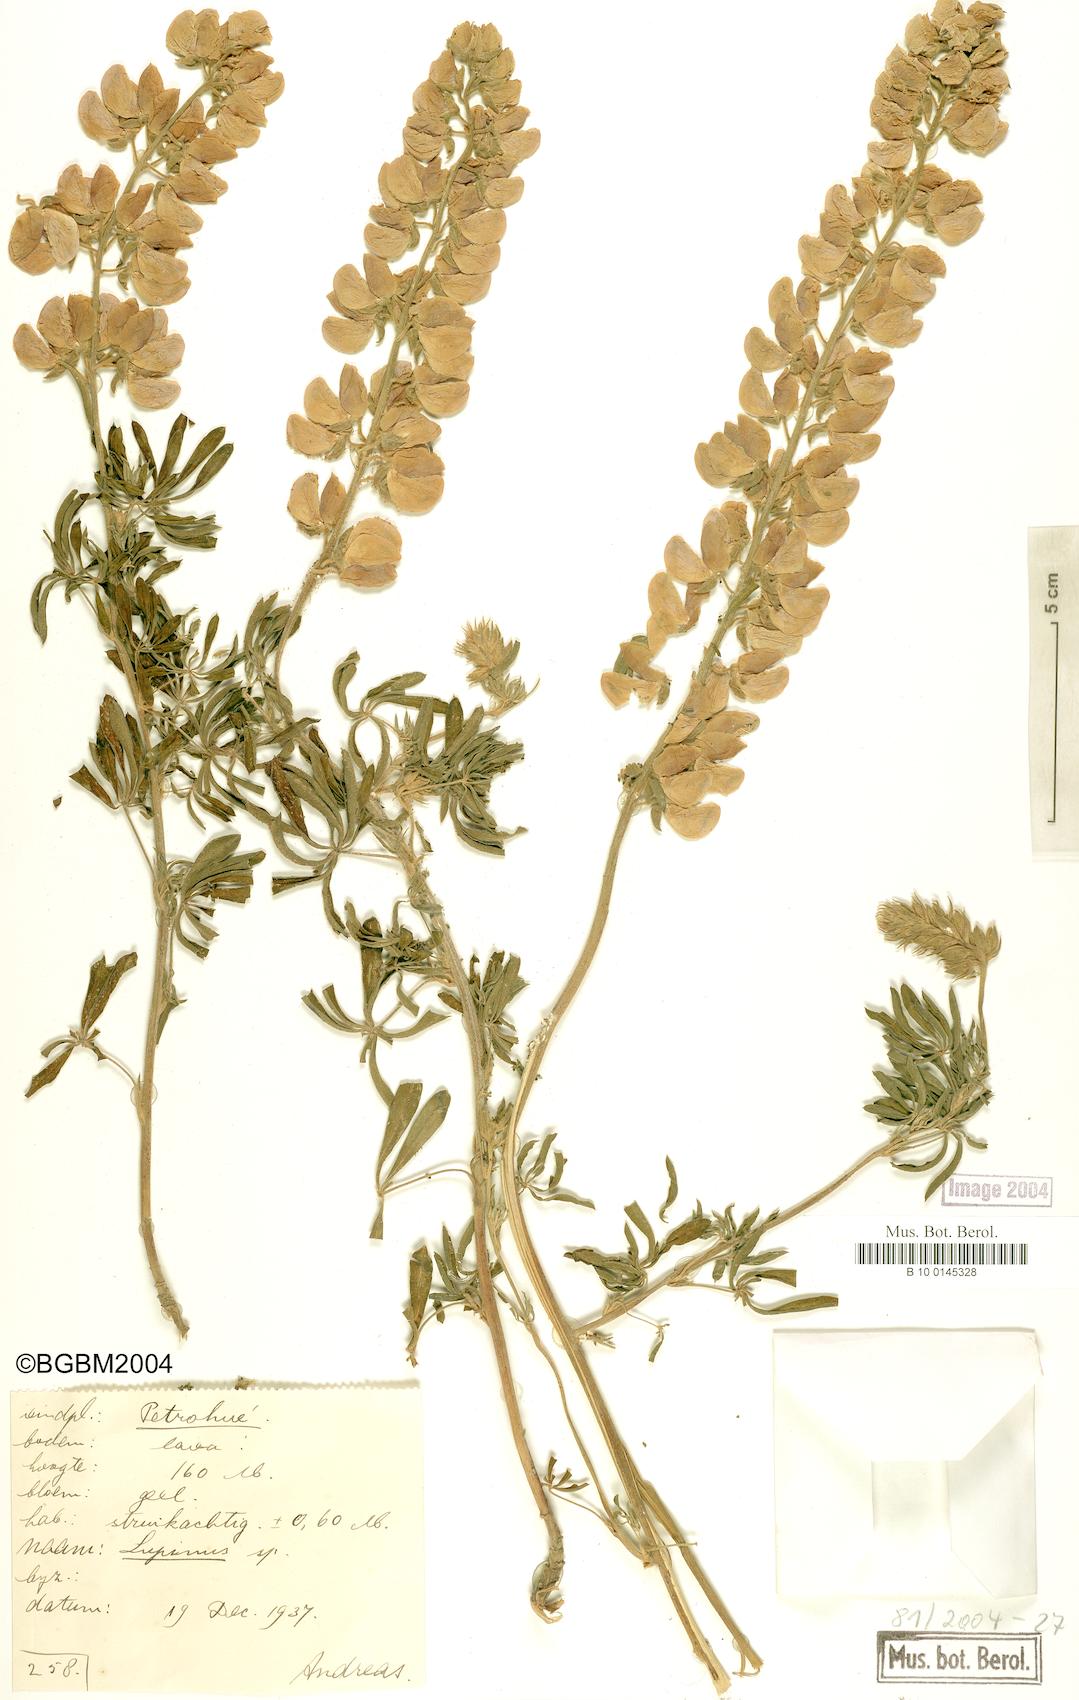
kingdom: Plantae
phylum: Tracheophyta
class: Magnoliopsida
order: Fabales
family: Fabaceae
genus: Lupinus
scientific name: Lupinus
